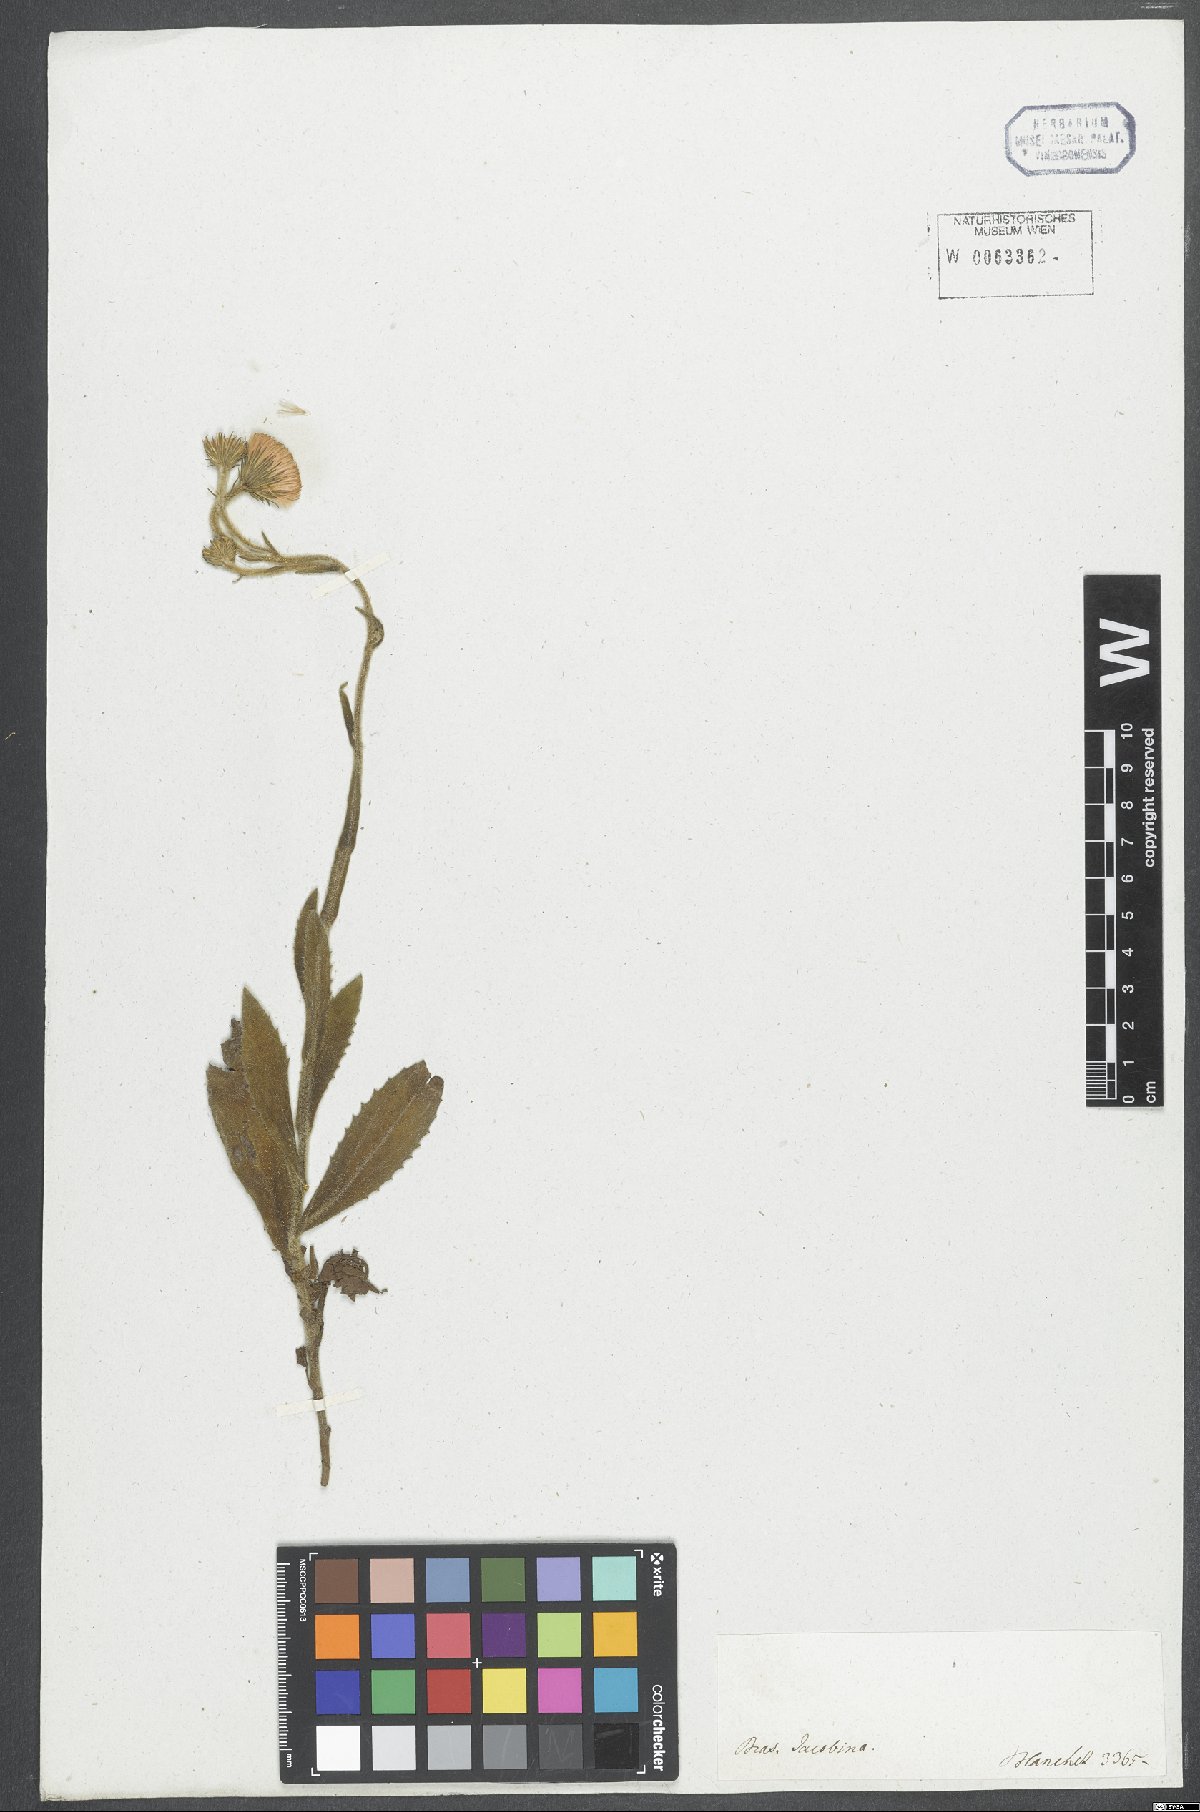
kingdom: Plantae
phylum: Tracheophyta
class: Magnoliopsida
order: Asterales
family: Asteraceae
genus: Haplopappus
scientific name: Haplopappus
